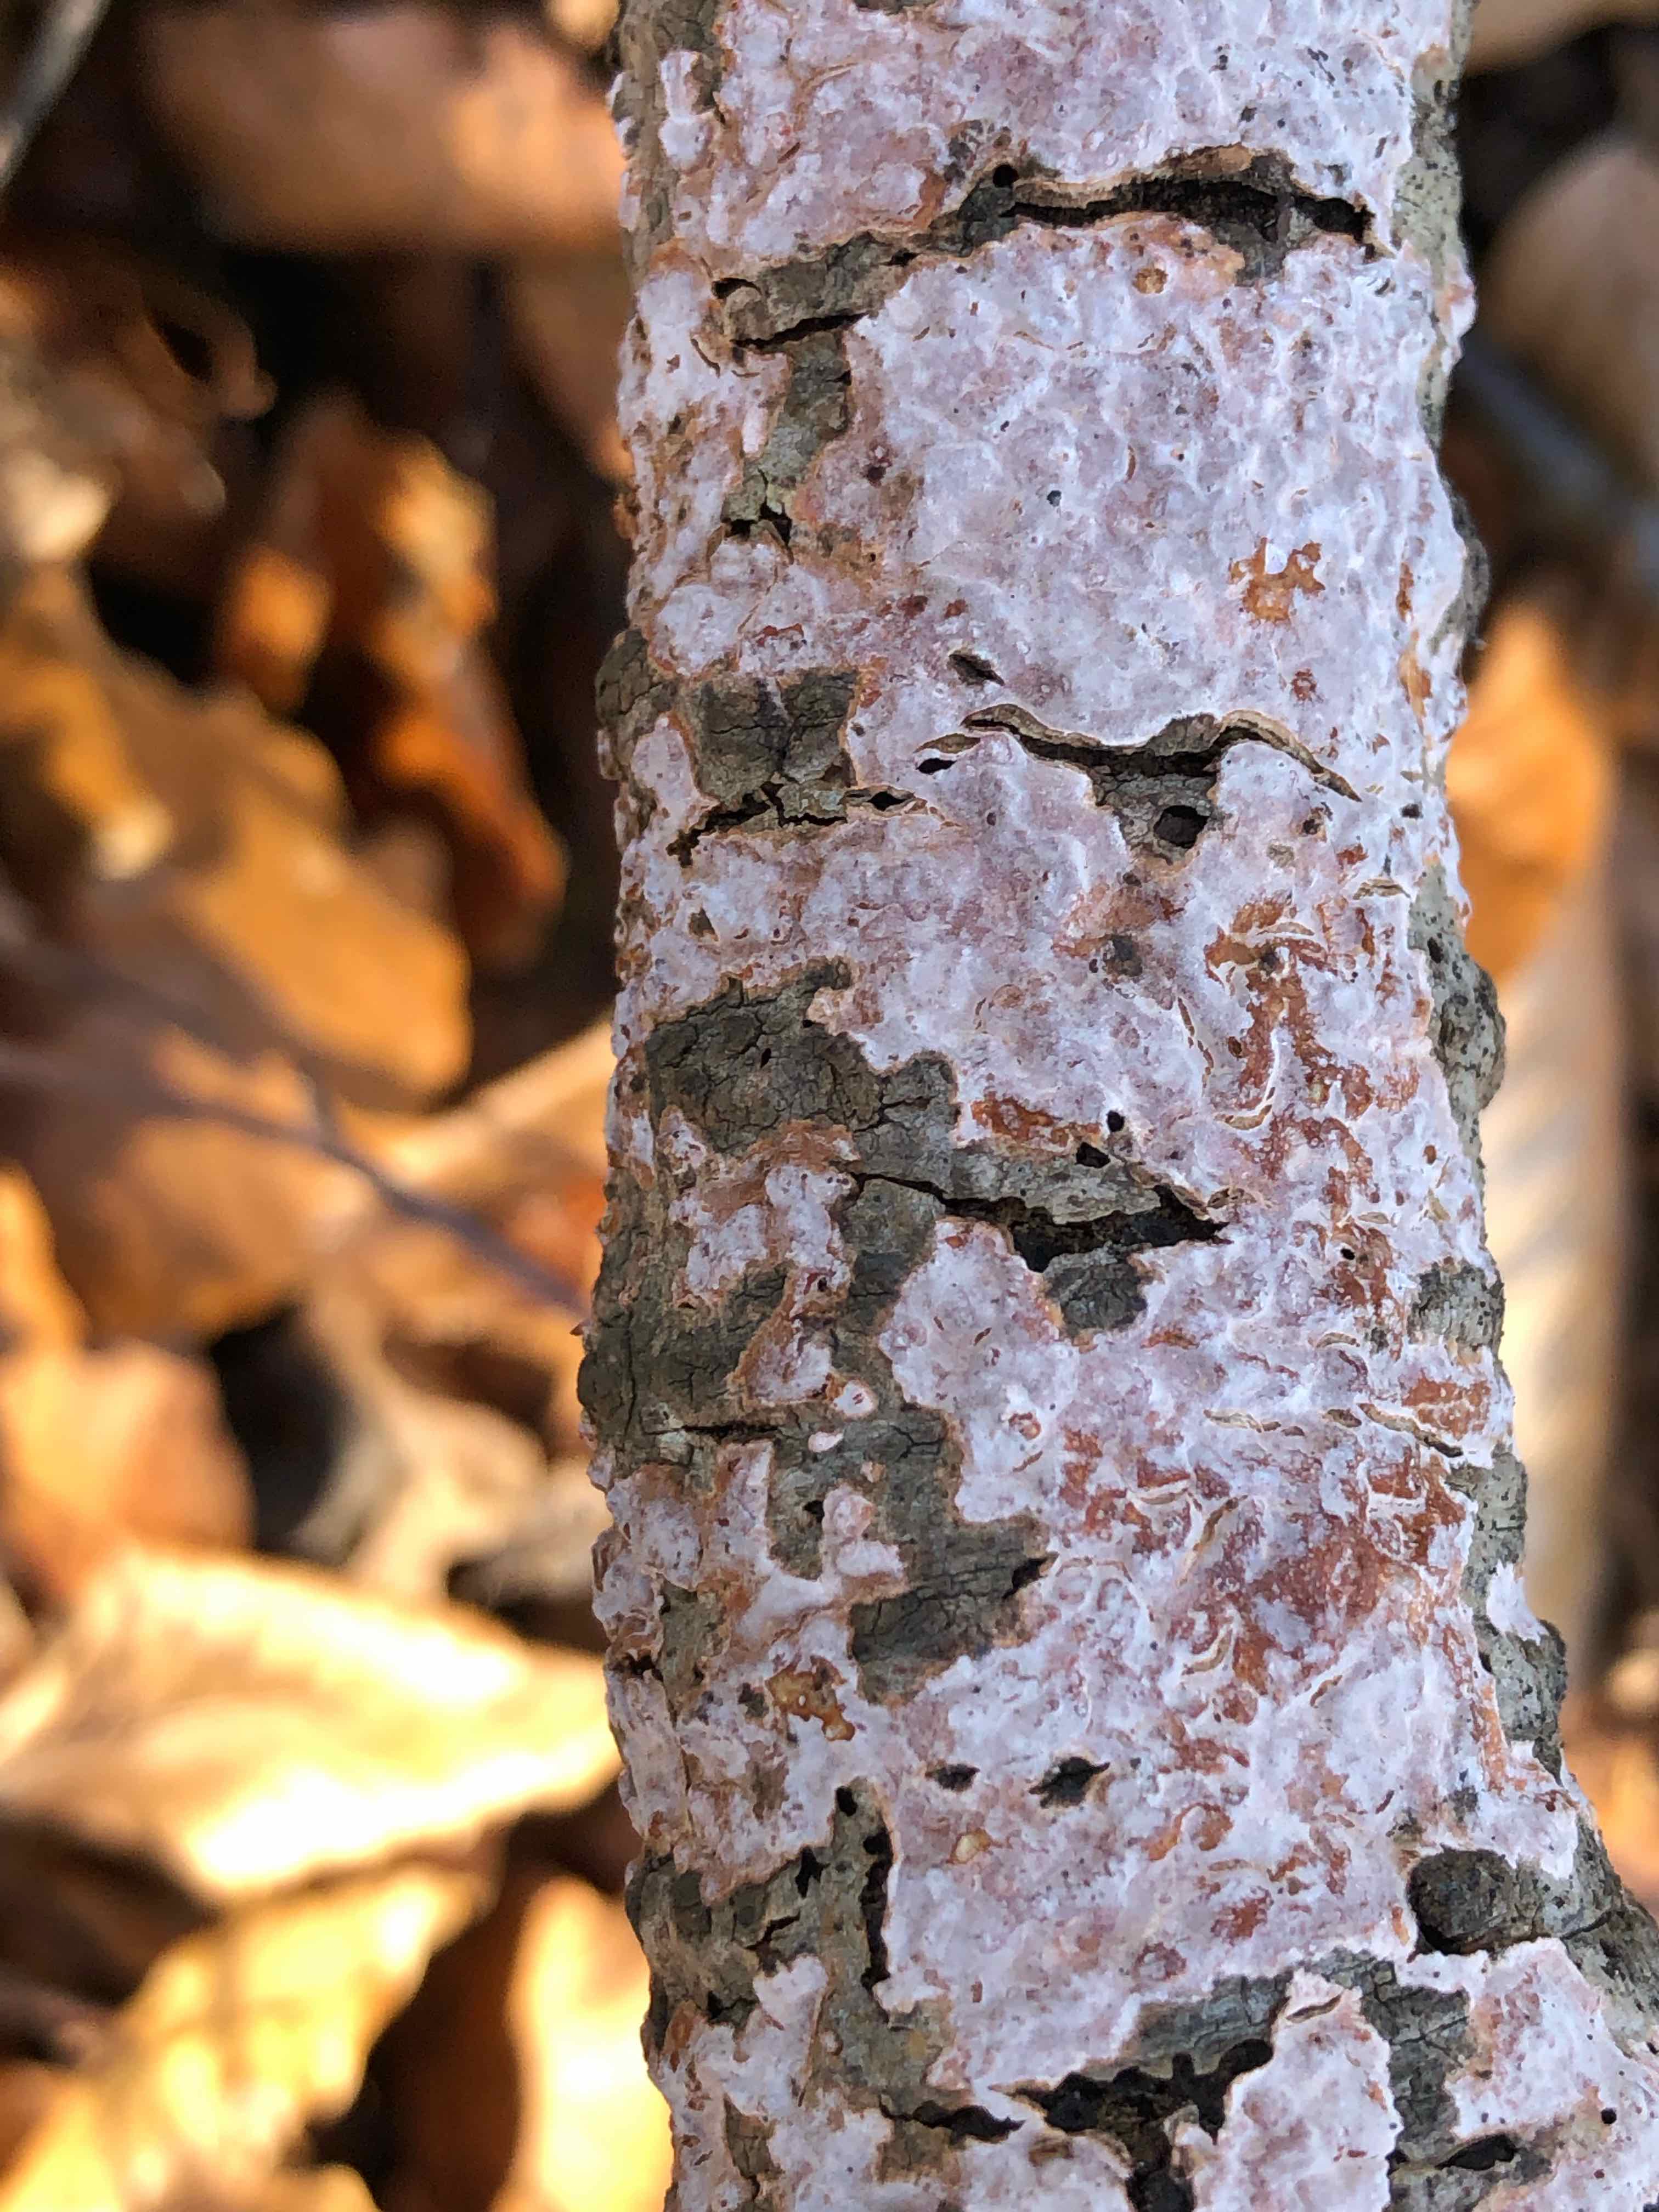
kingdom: Fungi
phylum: Basidiomycota
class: Agaricomycetes
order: Russulales
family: Peniophoraceae
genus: Peniophora
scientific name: Peniophora polygonia
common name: polygon-voksskind
